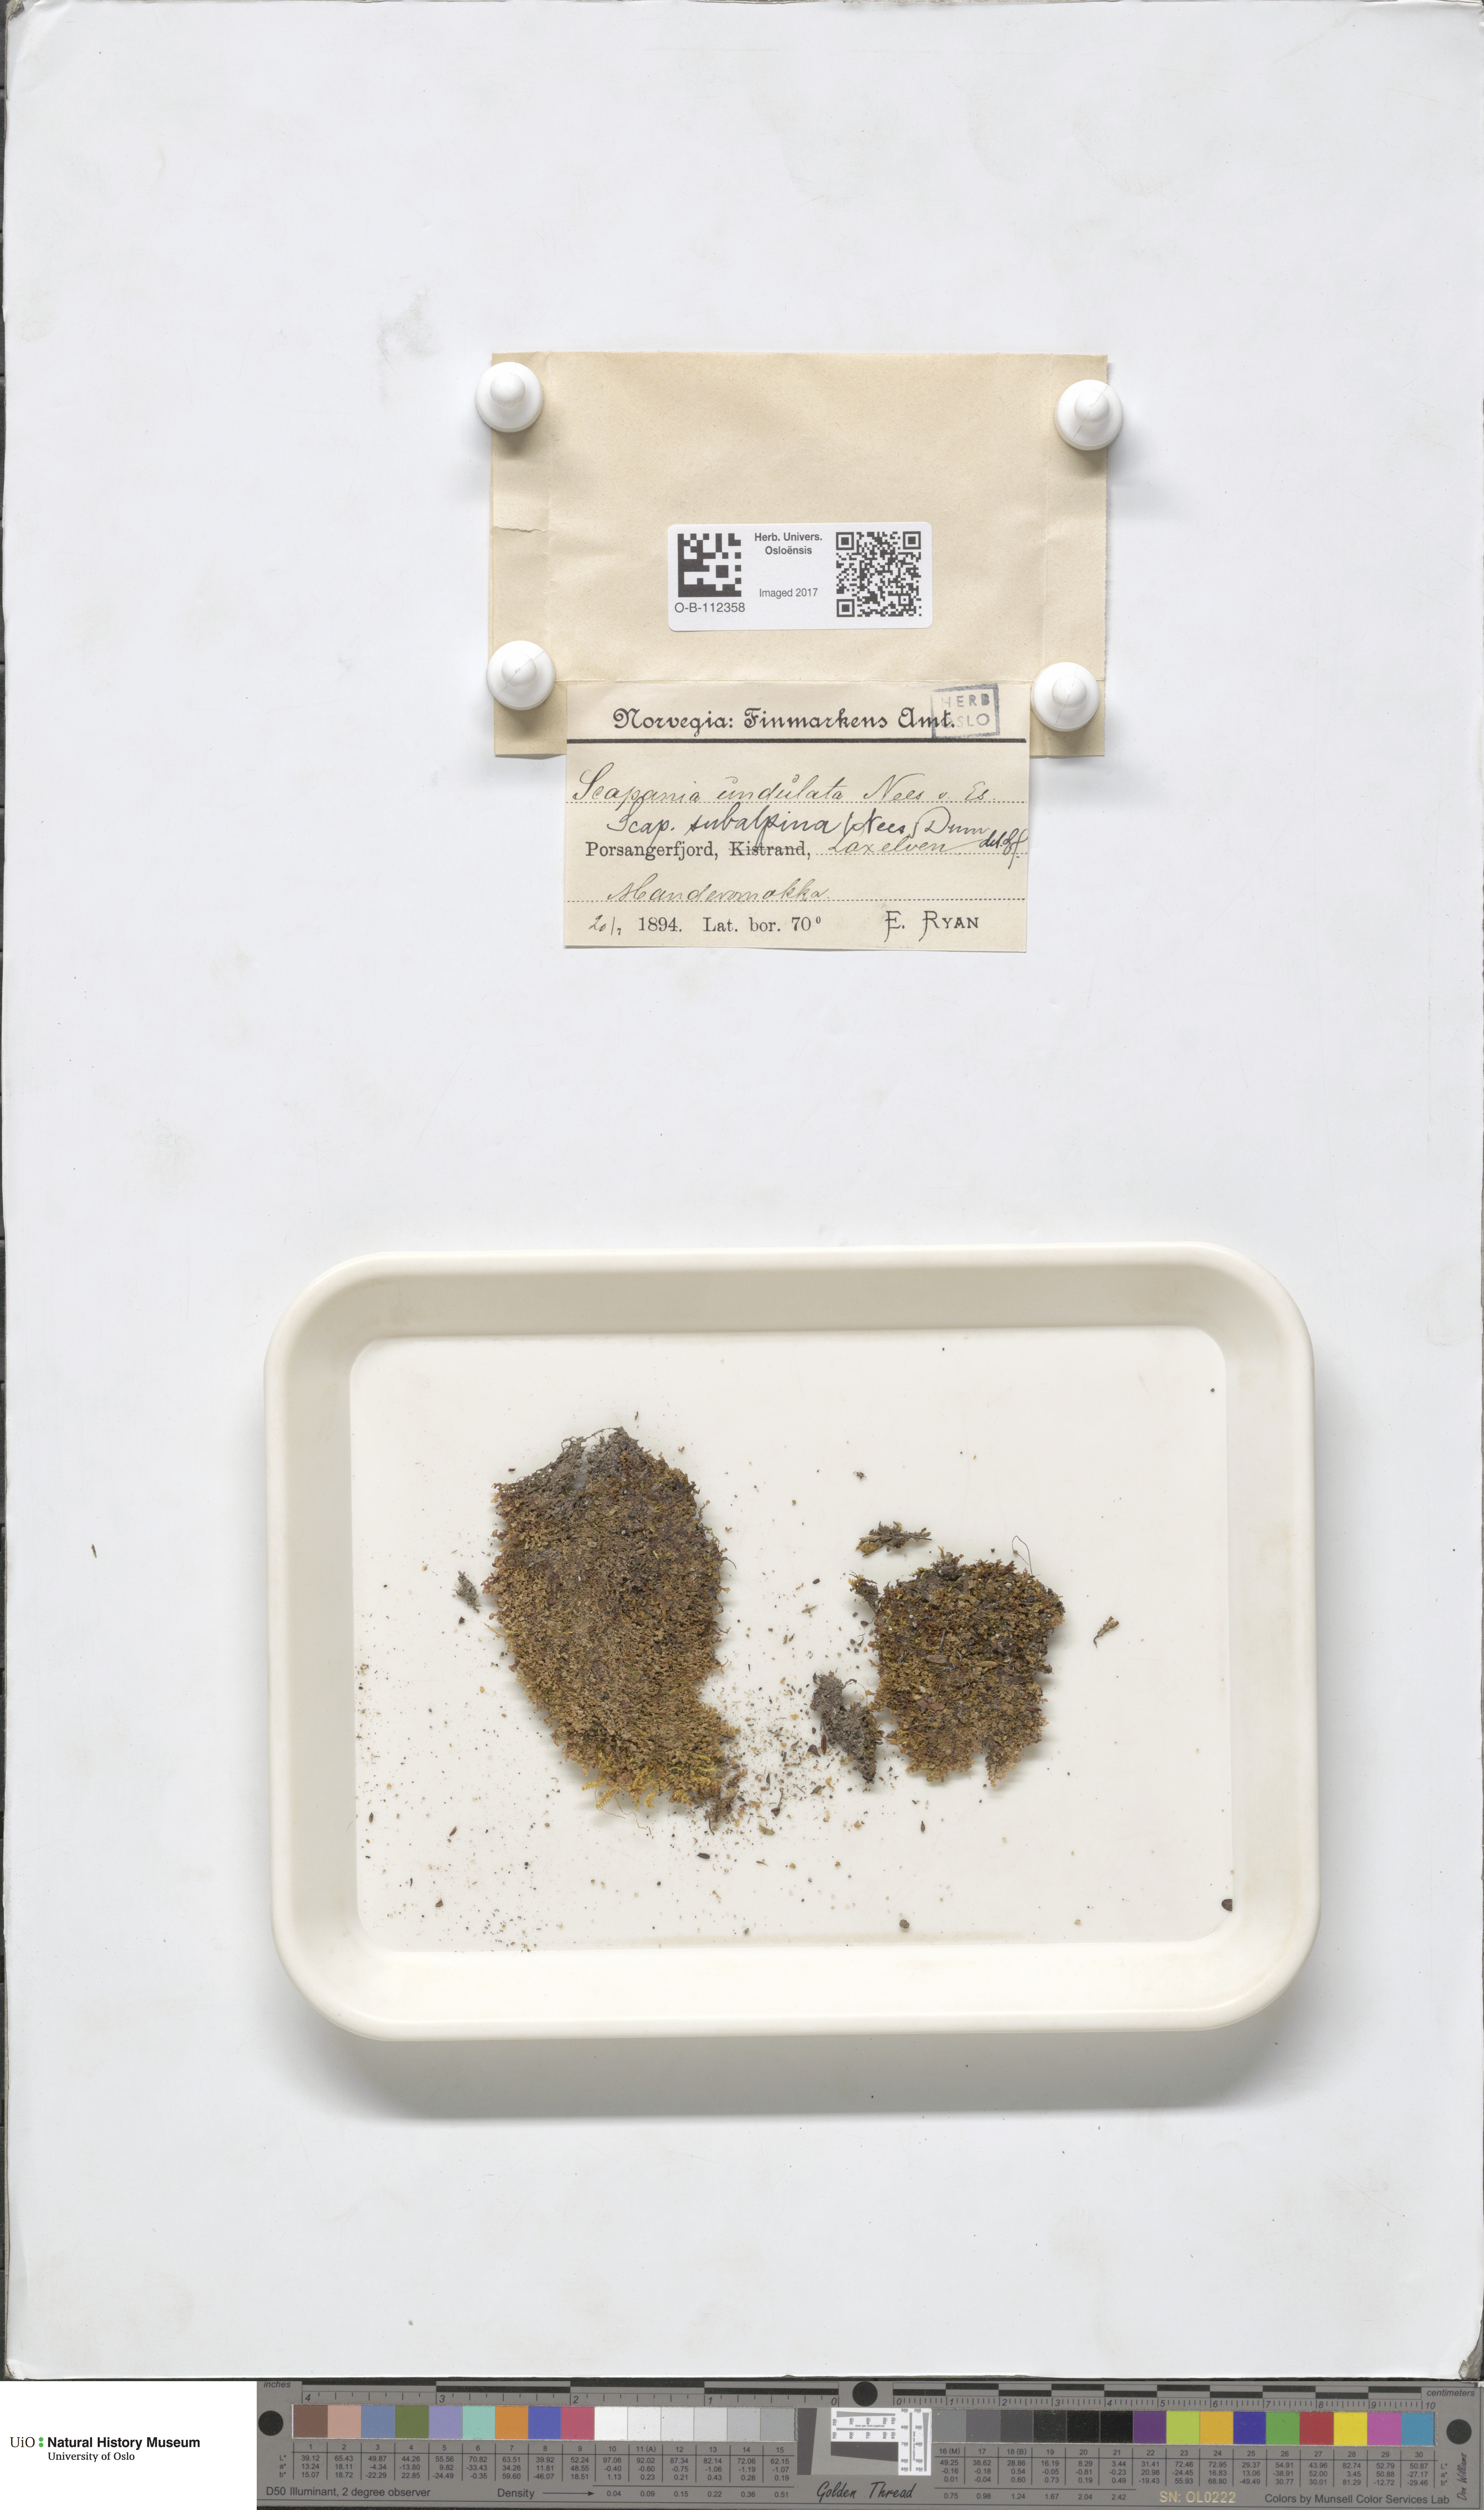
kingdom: Plantae
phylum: Marchantiophyta
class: Jungermanniopsida
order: Jungermanniales
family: Scapaniaceae
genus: Scapania
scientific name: Scapania subalpina
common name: Subalpine earwort
